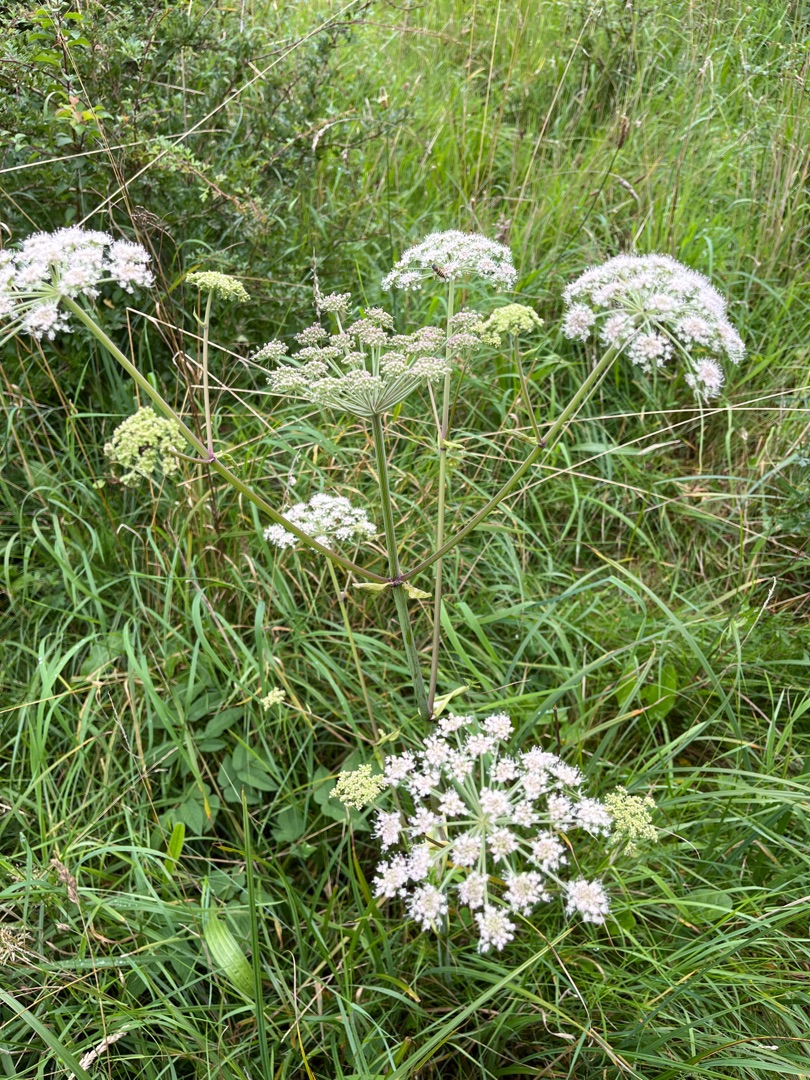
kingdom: Plantae
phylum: Tracheophyta
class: Magnoliopsida
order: Apiales
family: Apiaceae
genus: Angelica
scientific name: Angelica sylvestris
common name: Angelik
